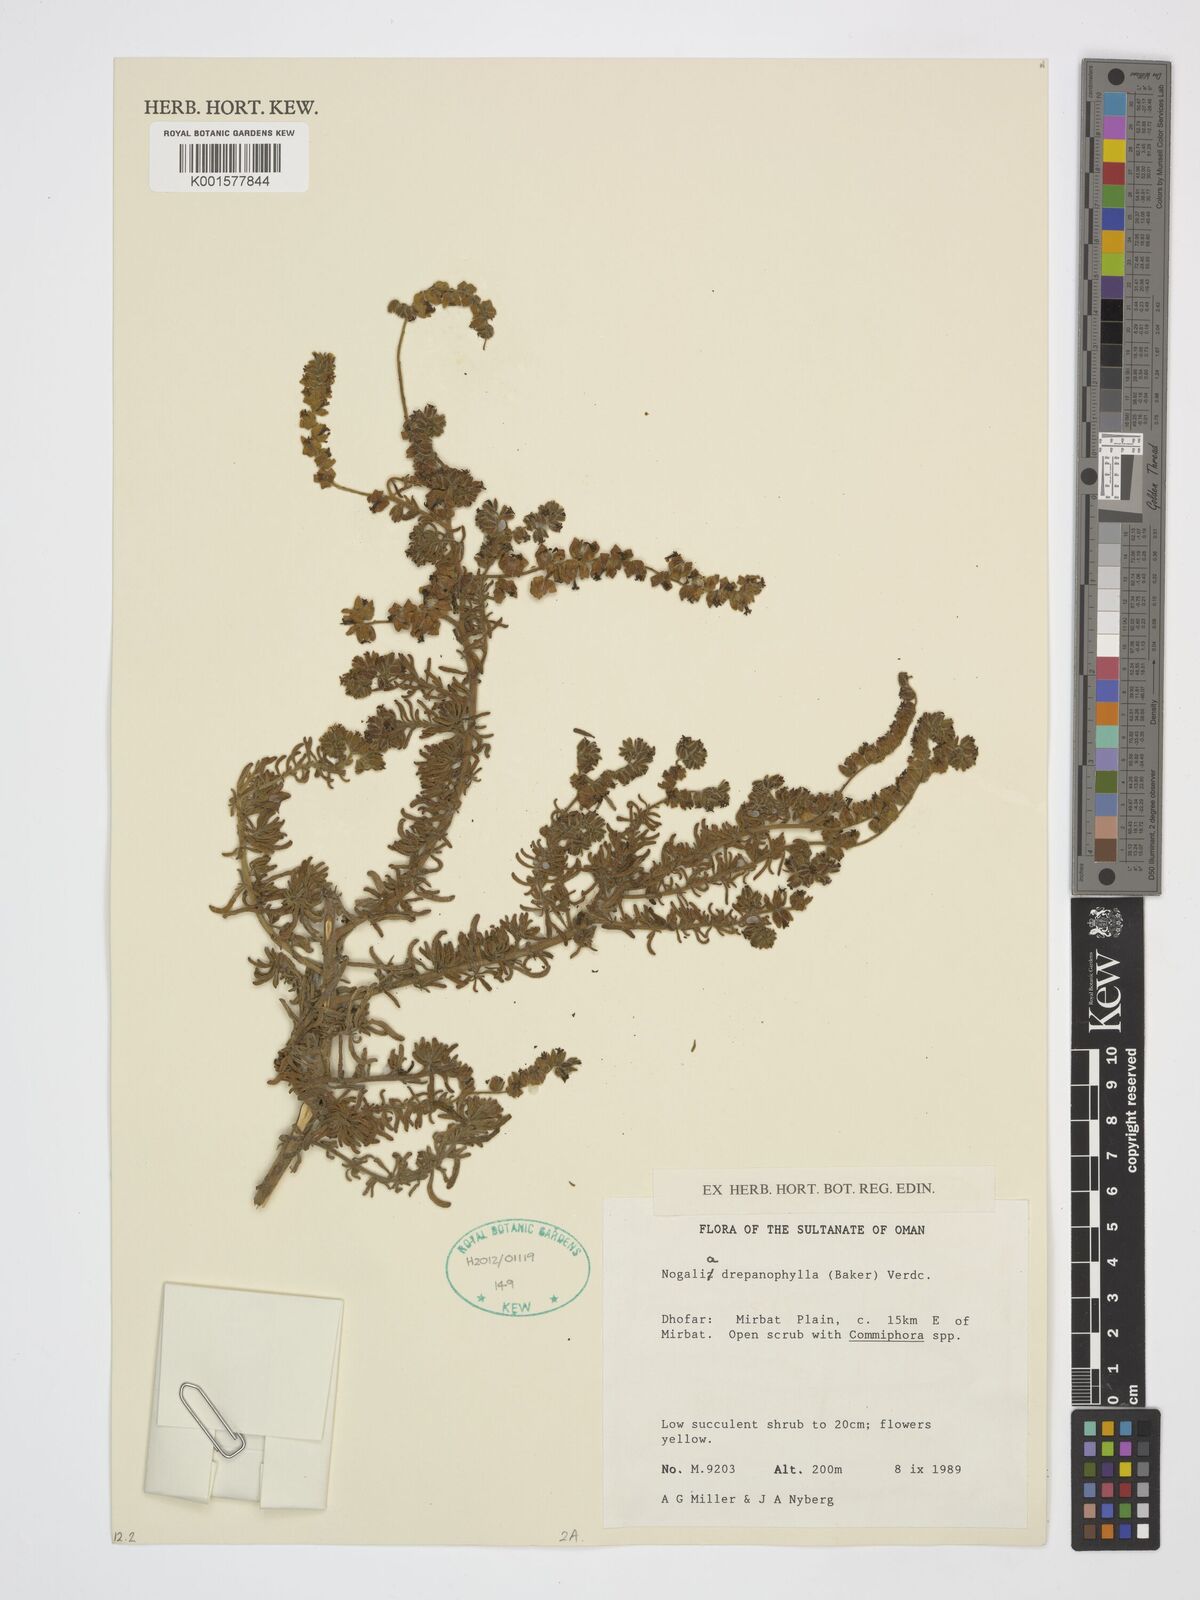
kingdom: Plantae
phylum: Tracheophyta
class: Magnoliopsida
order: Boraginales
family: Heliotropiaceae
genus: Heliotropium
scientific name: Heliotropium drepanophyllum
